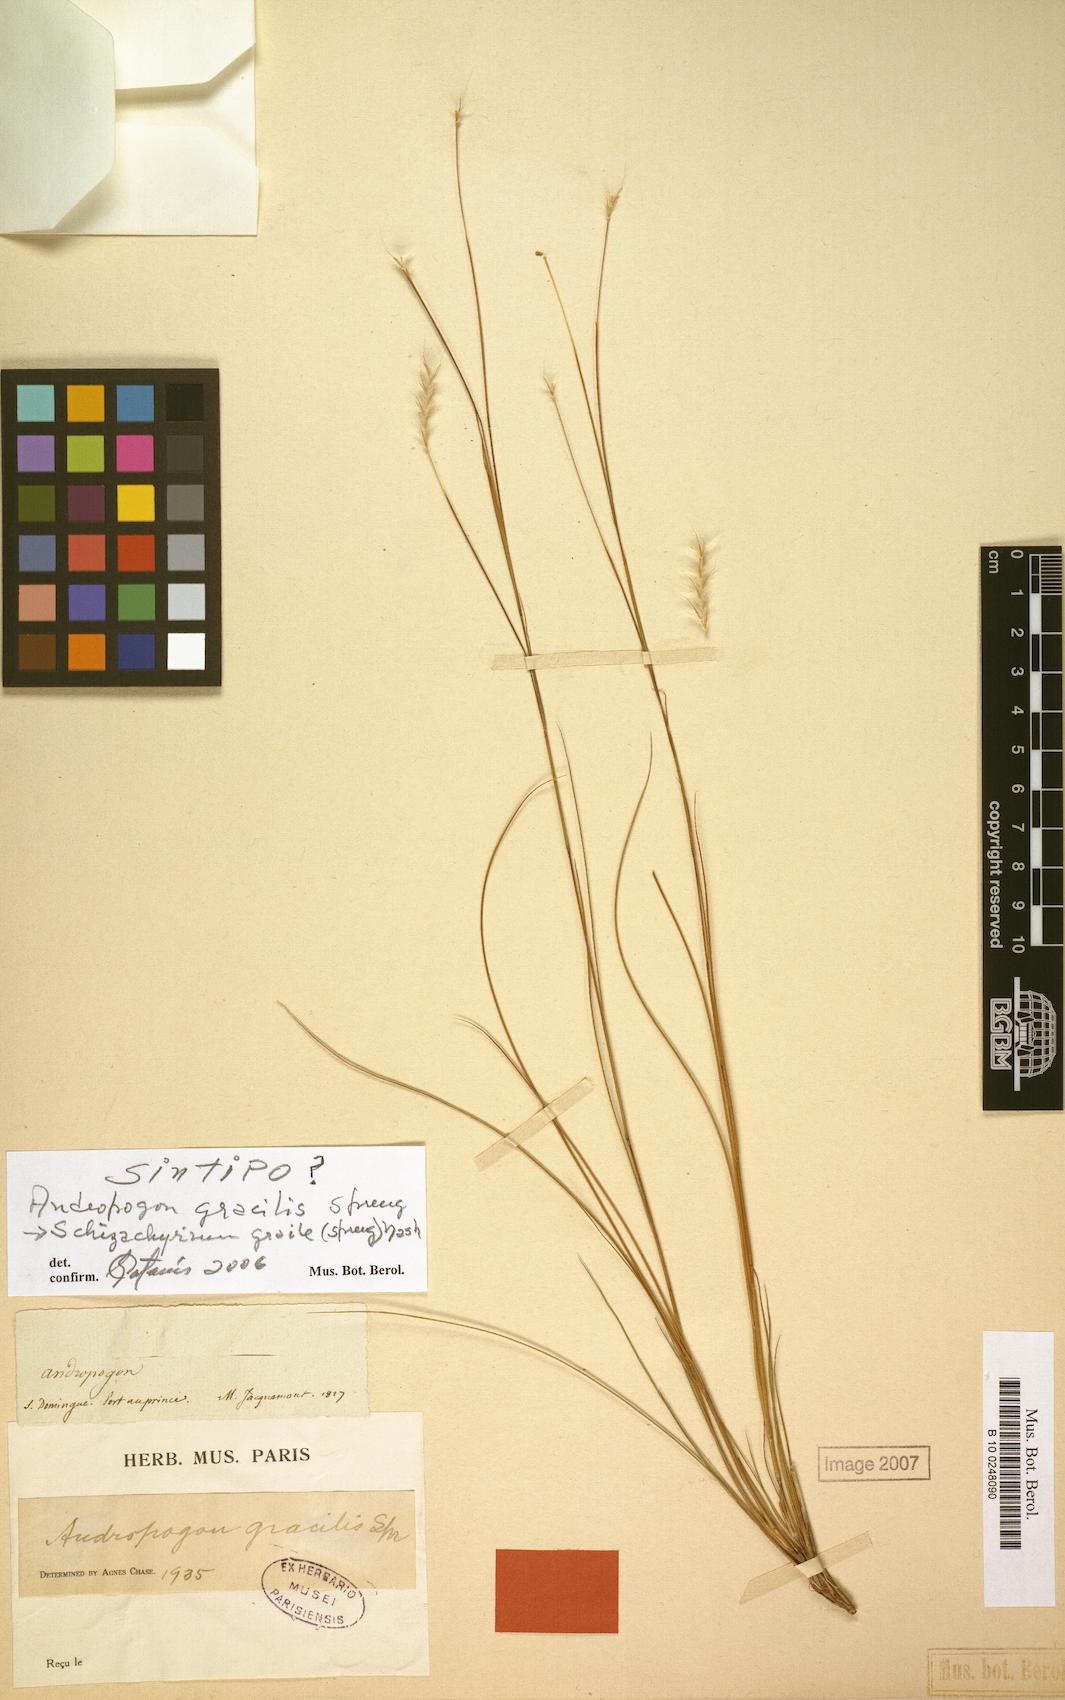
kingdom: Plantae
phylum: Tracheophyta
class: Liliopsida
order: Poales
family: Poaceae
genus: Schizachyrium
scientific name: Schizachyrium gracile
